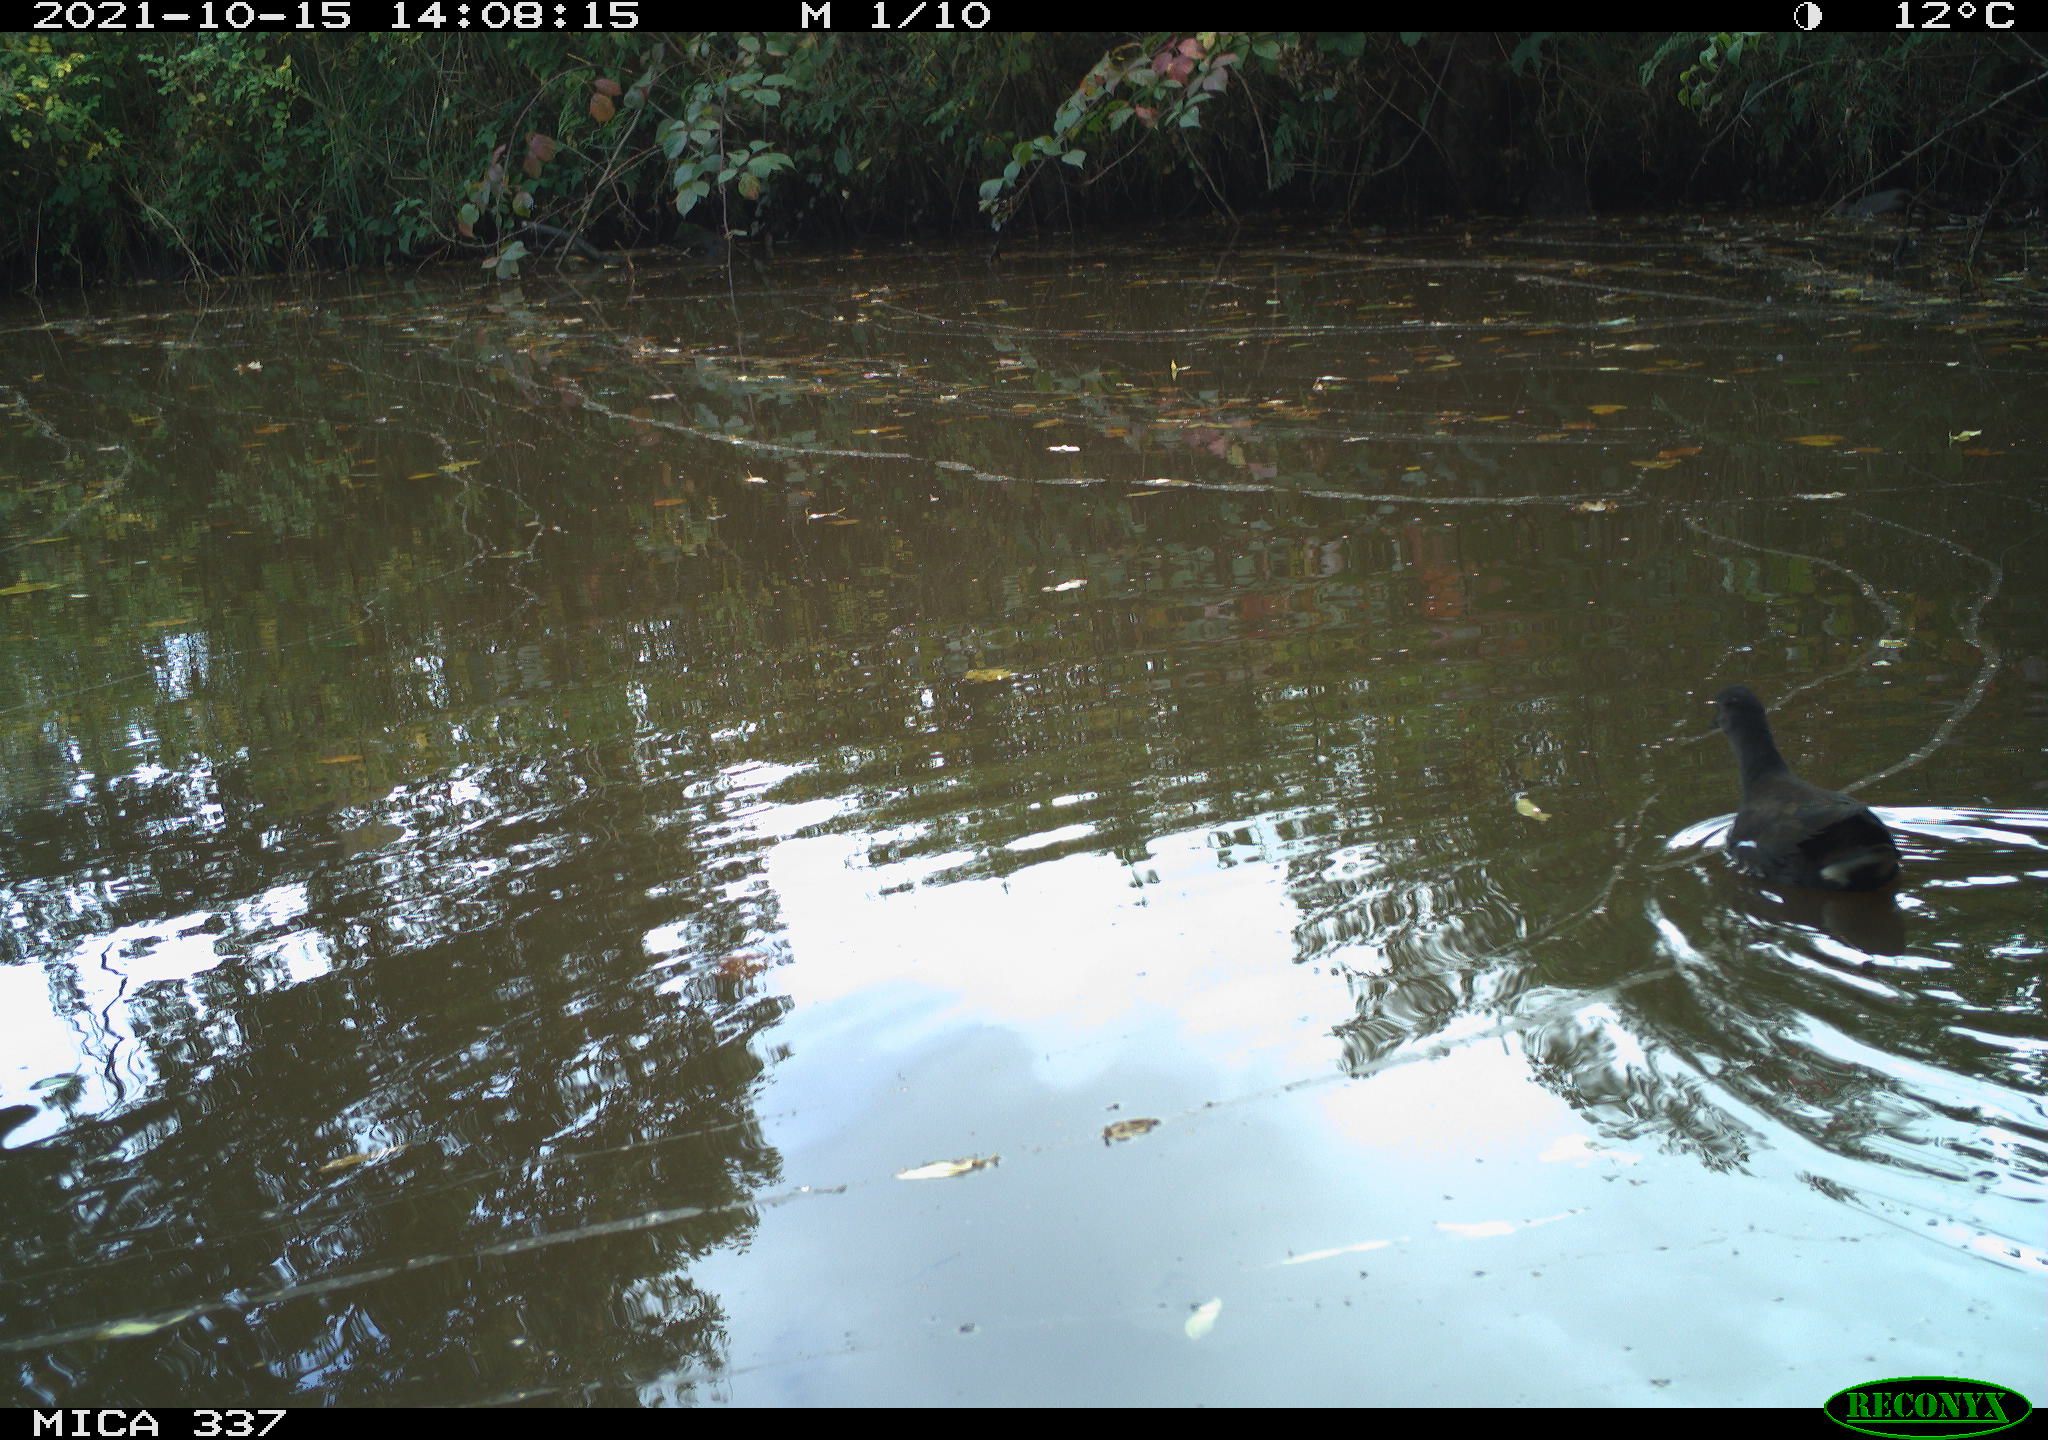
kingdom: Animalia
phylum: Chordata
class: Aves
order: Gruiformes
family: Rallidae
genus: Gallinula
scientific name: Gallinula chloropus
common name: Common moorhen
